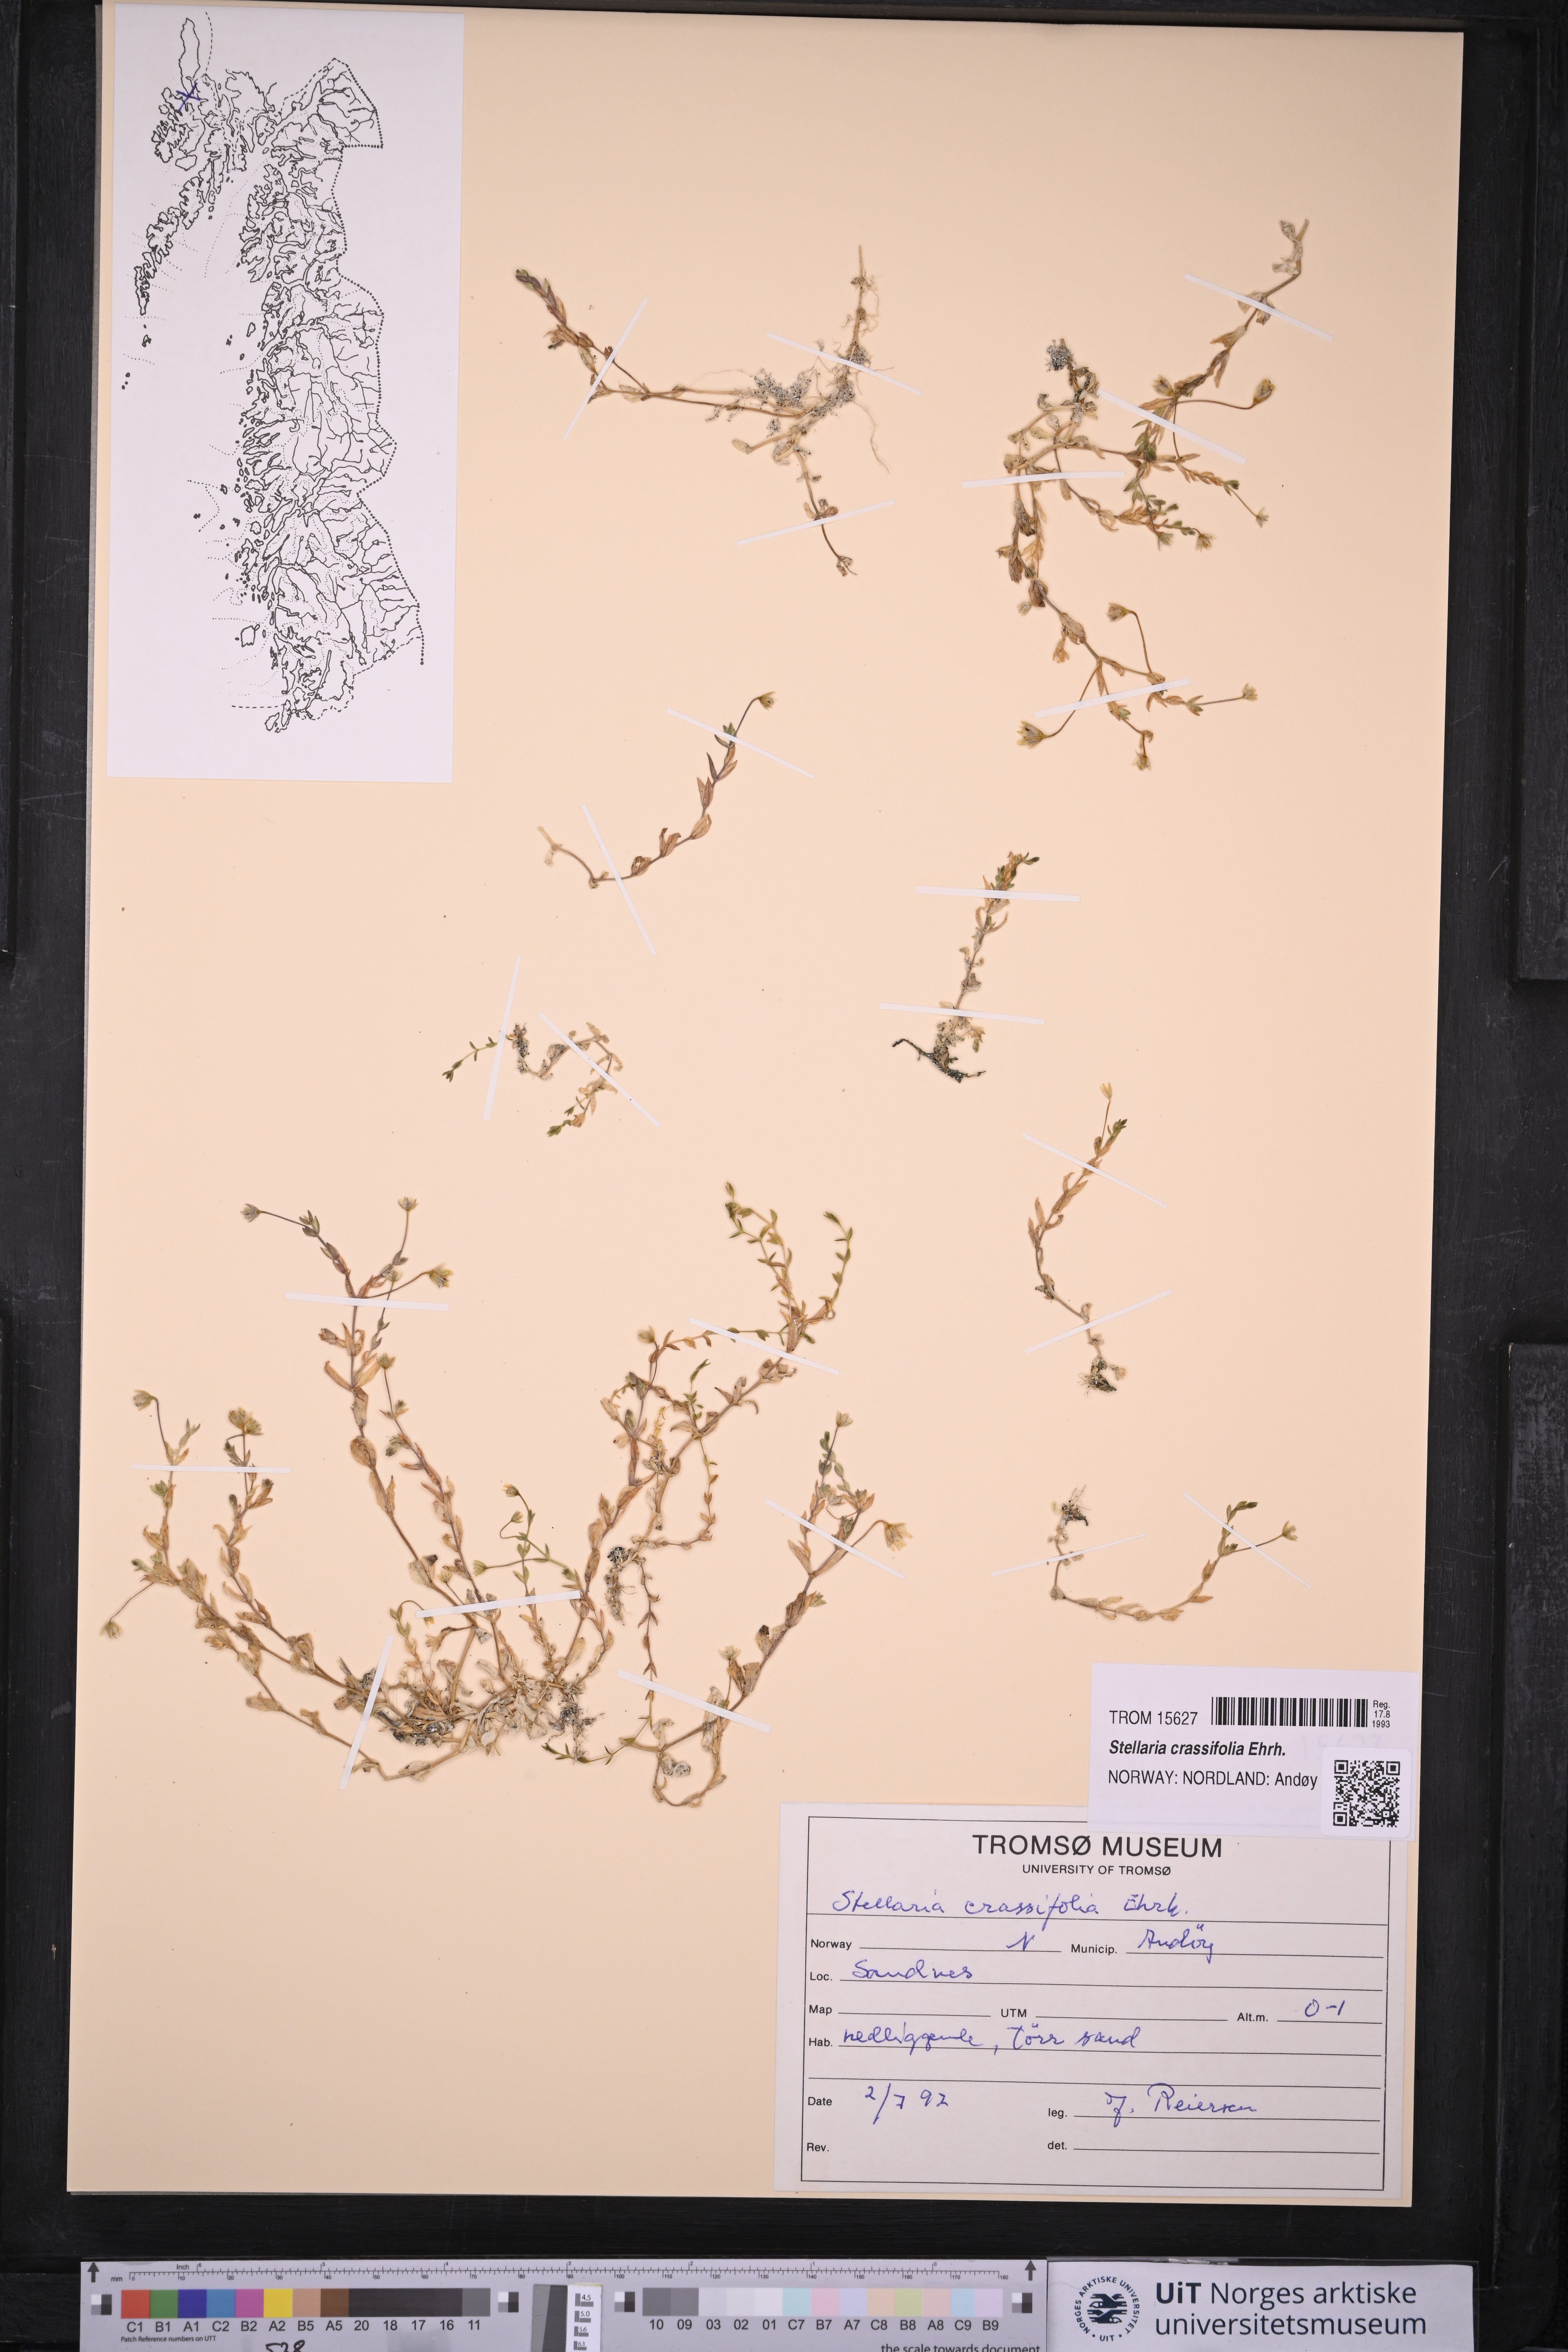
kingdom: Plantae
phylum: Tracheophyta
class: Magnoliopsida
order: Caryophyllales
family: Caryophyllaceae
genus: Stellaria
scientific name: Stellaria crassifolia
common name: Fleshy starwort
